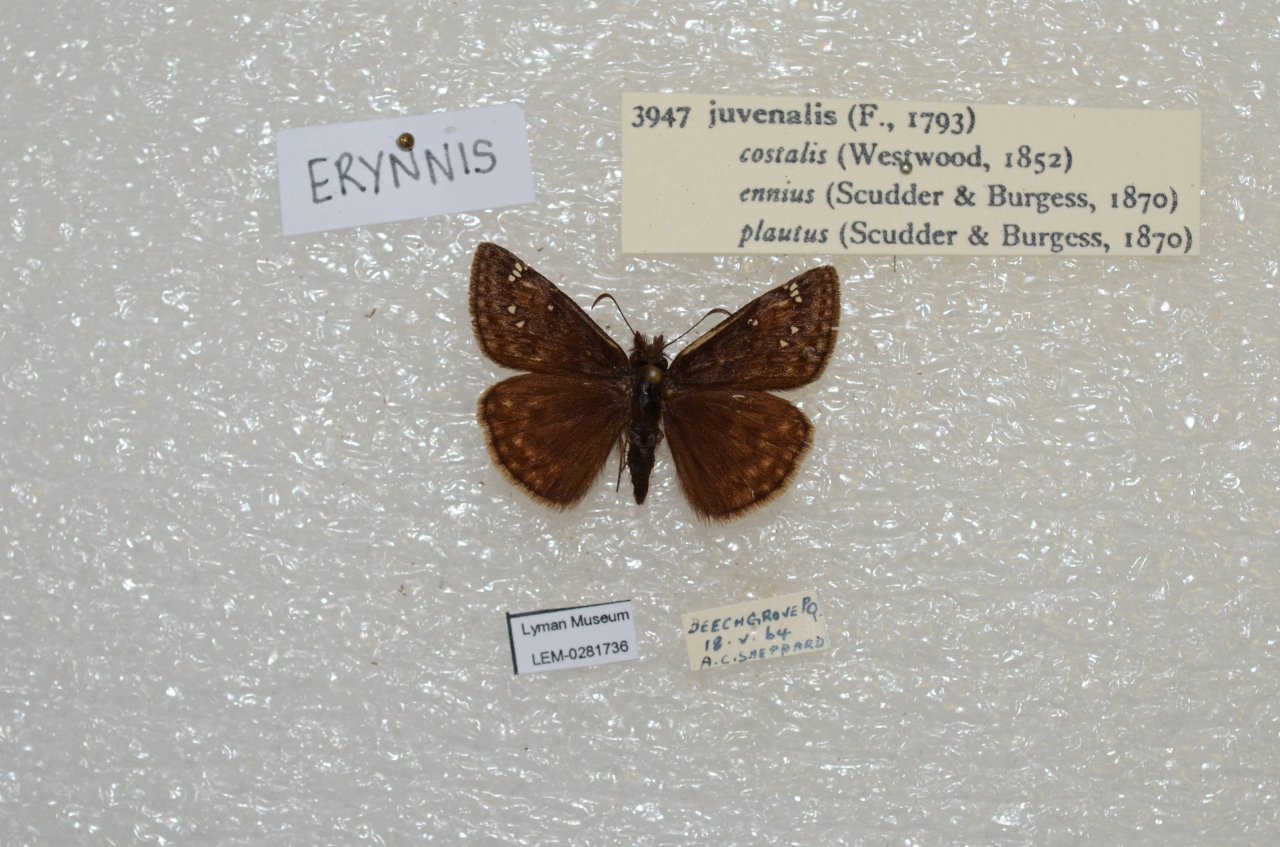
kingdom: Animalia
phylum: Arthropoda
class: Insecta
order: Lepidoptera
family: Hesperiidae
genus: Gesta
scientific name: Gesta
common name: Juvenal's Duskywing
